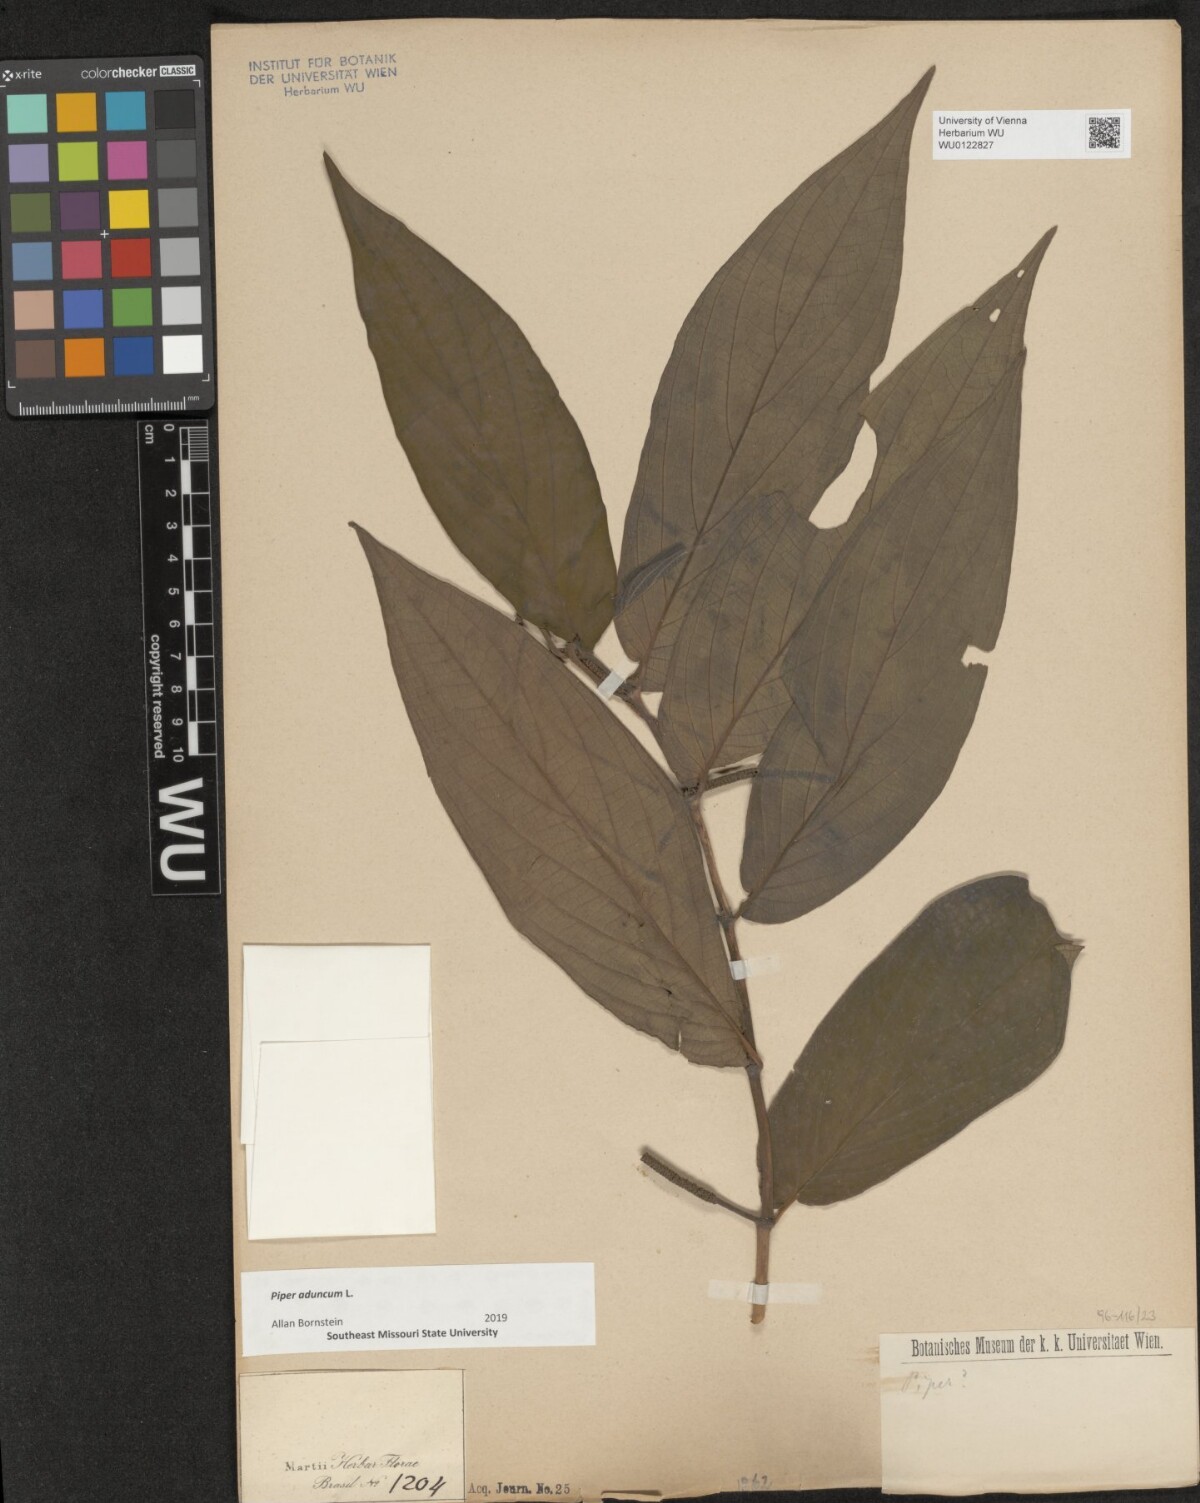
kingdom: Plantae
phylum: Tracheophyta
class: Magnoliopsida
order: Piperales
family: Piperaceae
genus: Piper
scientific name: Piper aduncum
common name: Spiked pepper
